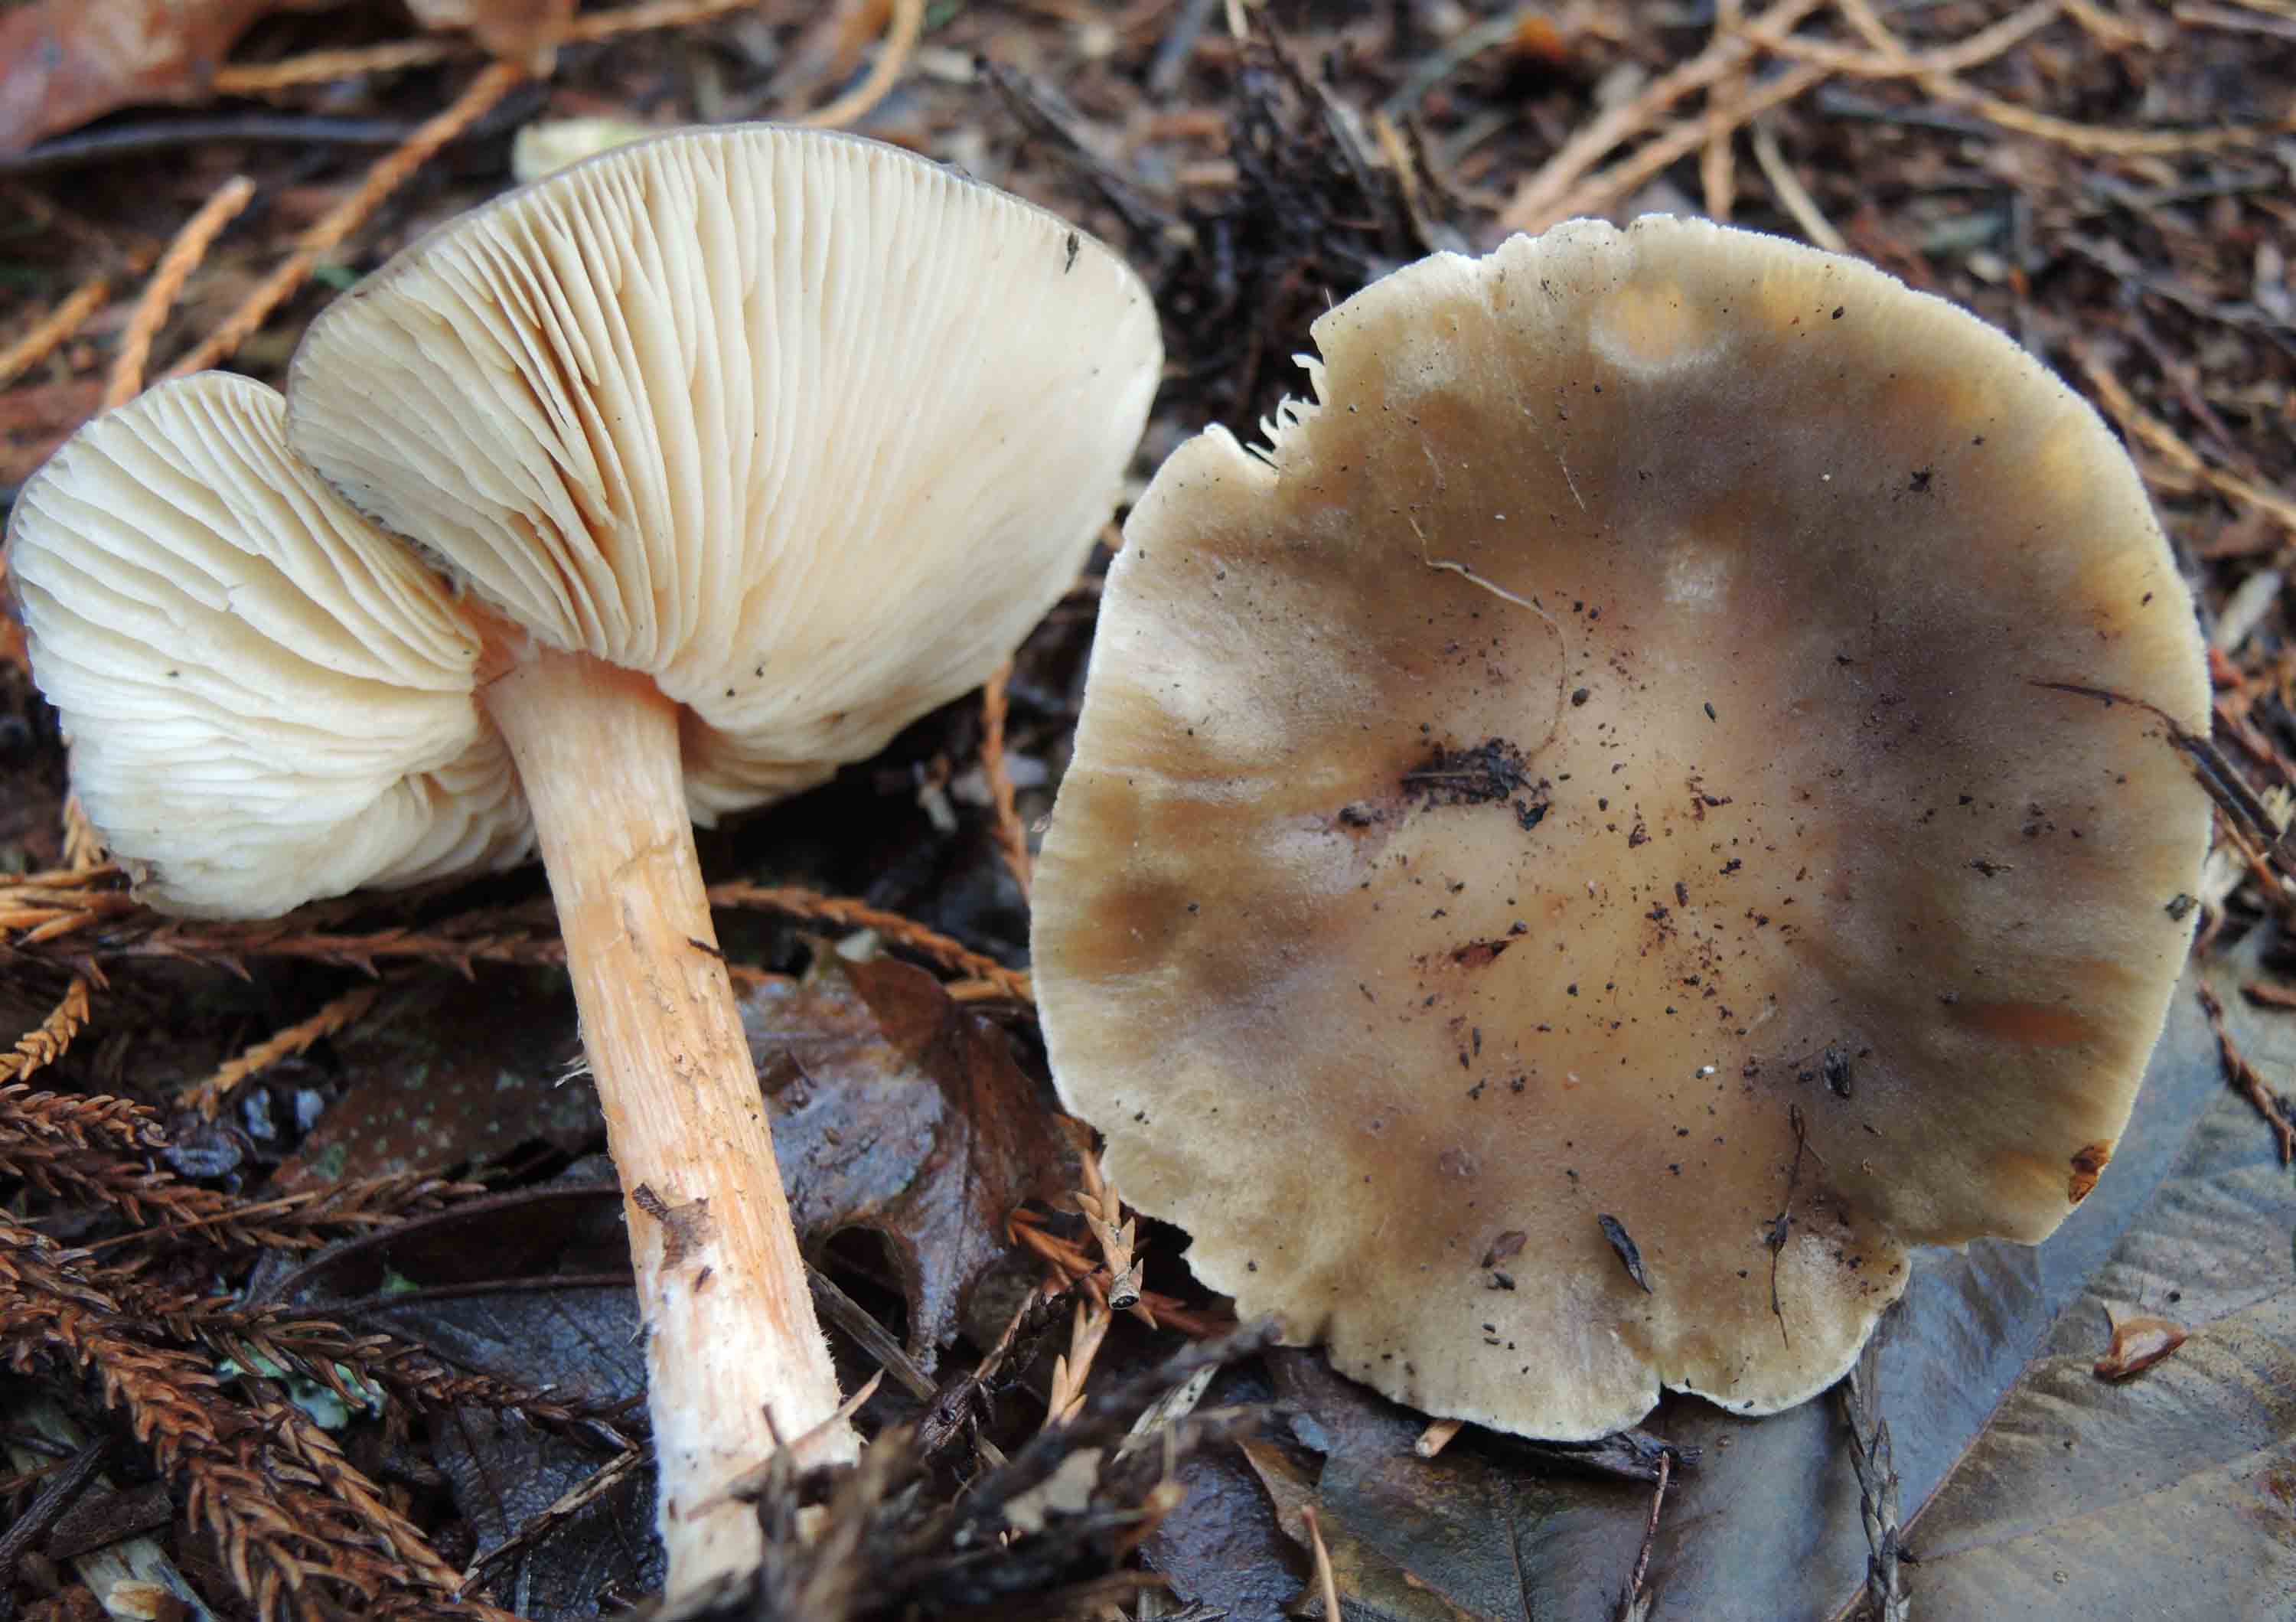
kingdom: Fungi
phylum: Basidiomycota
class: Agaricomycetes
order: Agaricales
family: Tricholomataceae
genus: Melanoleuca
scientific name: Melanoleuca cognata
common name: gyldengrå munkehat
